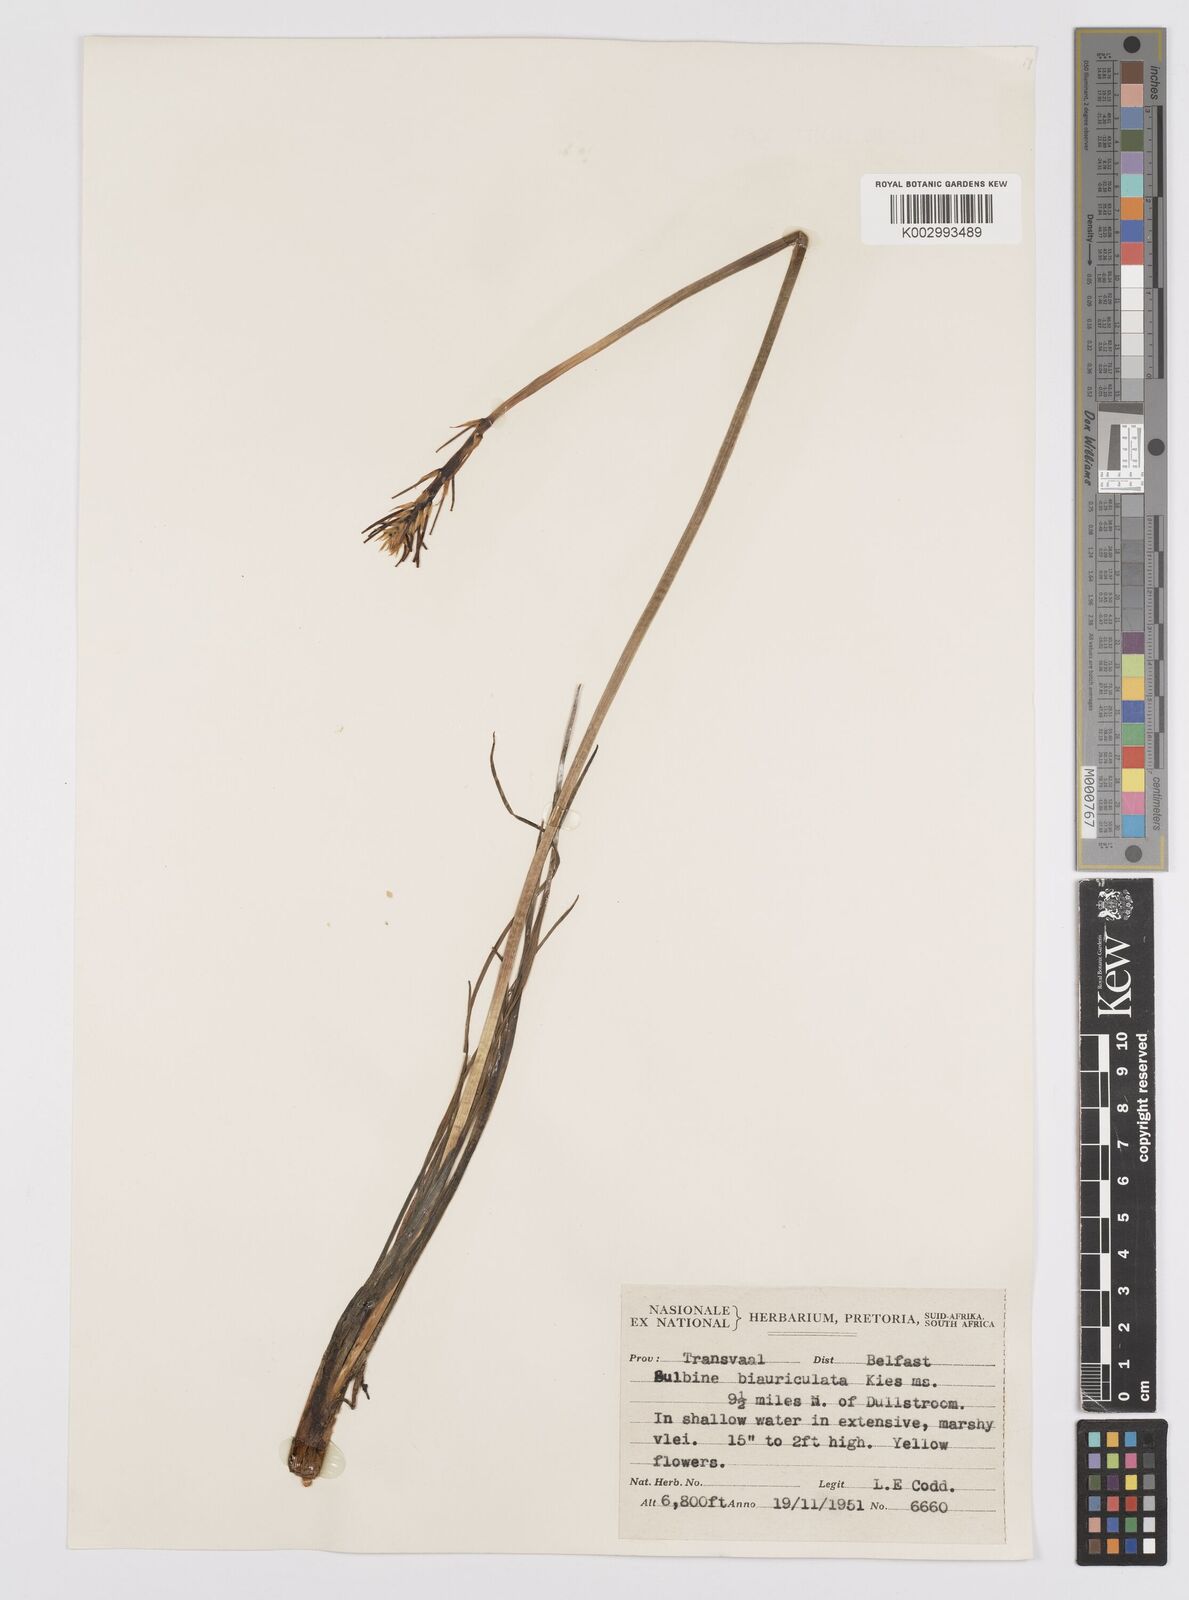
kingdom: Plantae
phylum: Tracheophyta
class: Liliopsida
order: Asparagales
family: Asphodelaceae
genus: Bulbine
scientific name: Bulbine abyssinica
